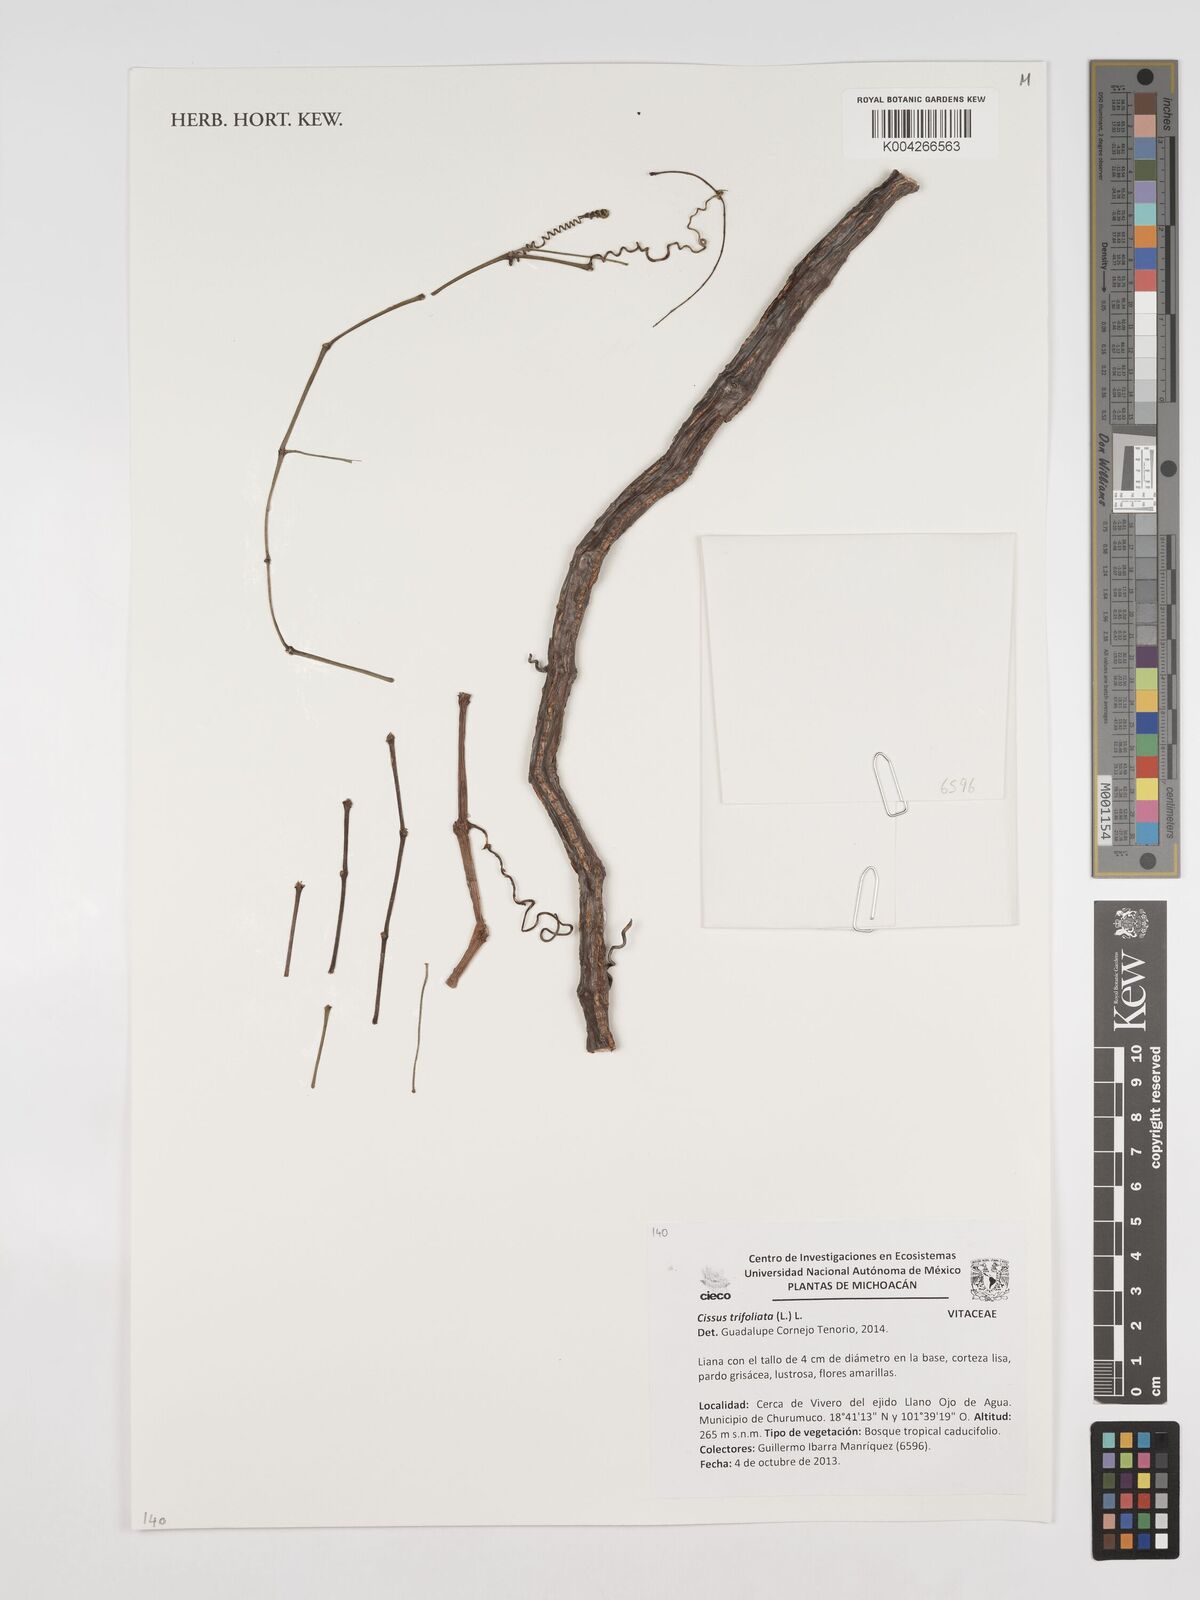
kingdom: Plantae
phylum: Tracheophyta
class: Magnoliopsida
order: Vitales
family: Vitaceae
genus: Cissus
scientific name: Cissus
